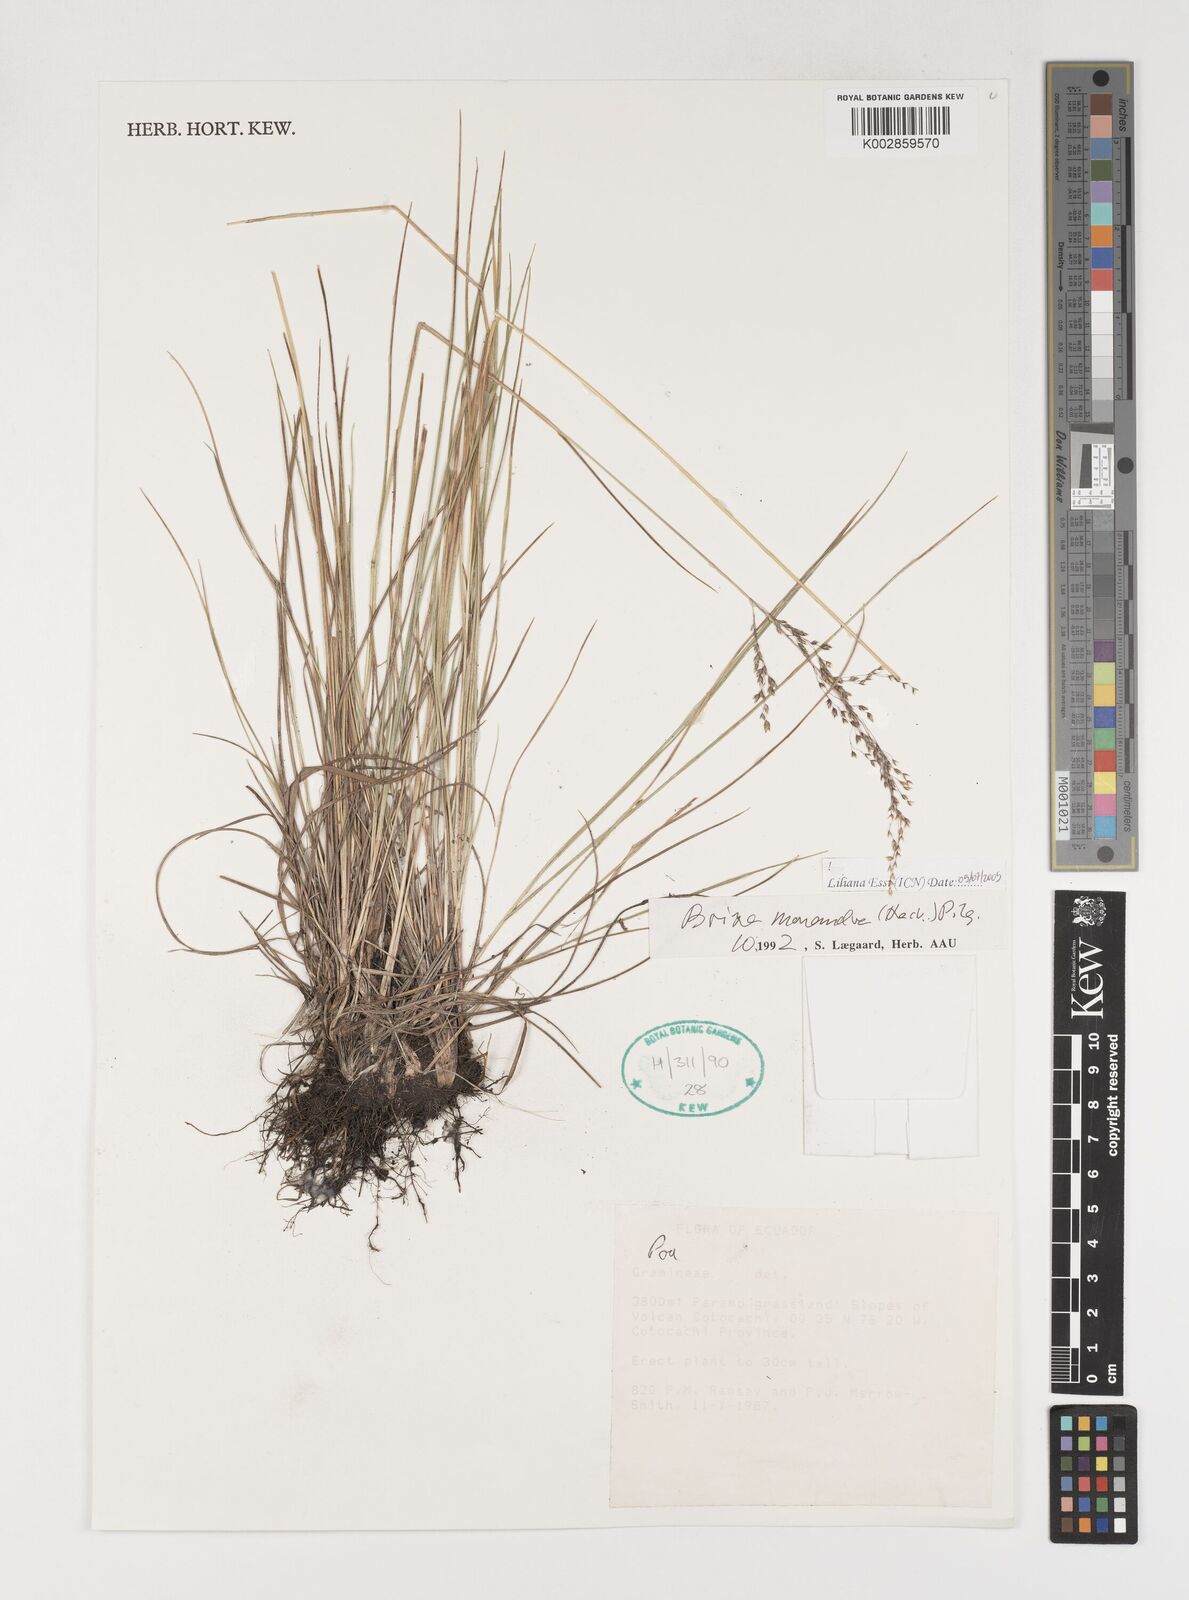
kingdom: Plantae
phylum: Tracheophyta
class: Liliopsida
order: Poales
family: Poaceae
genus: Poidium
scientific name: Poidium monandrum
